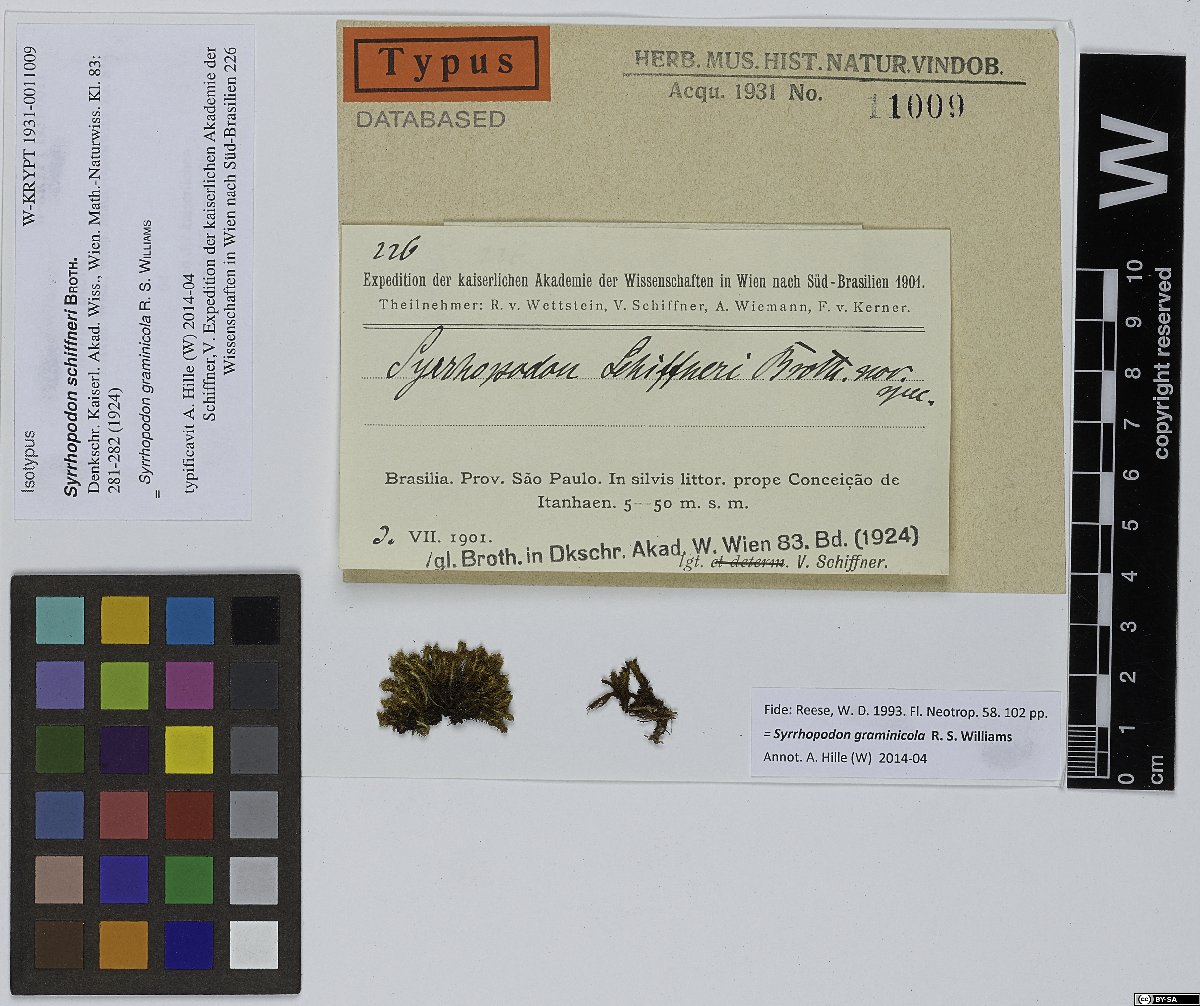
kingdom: Plantae
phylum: Bryophyta
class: Bryopsida
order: Dicranales
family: Calymperaceae
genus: Syrrhopodon
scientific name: Syrrhopodon graminicola
